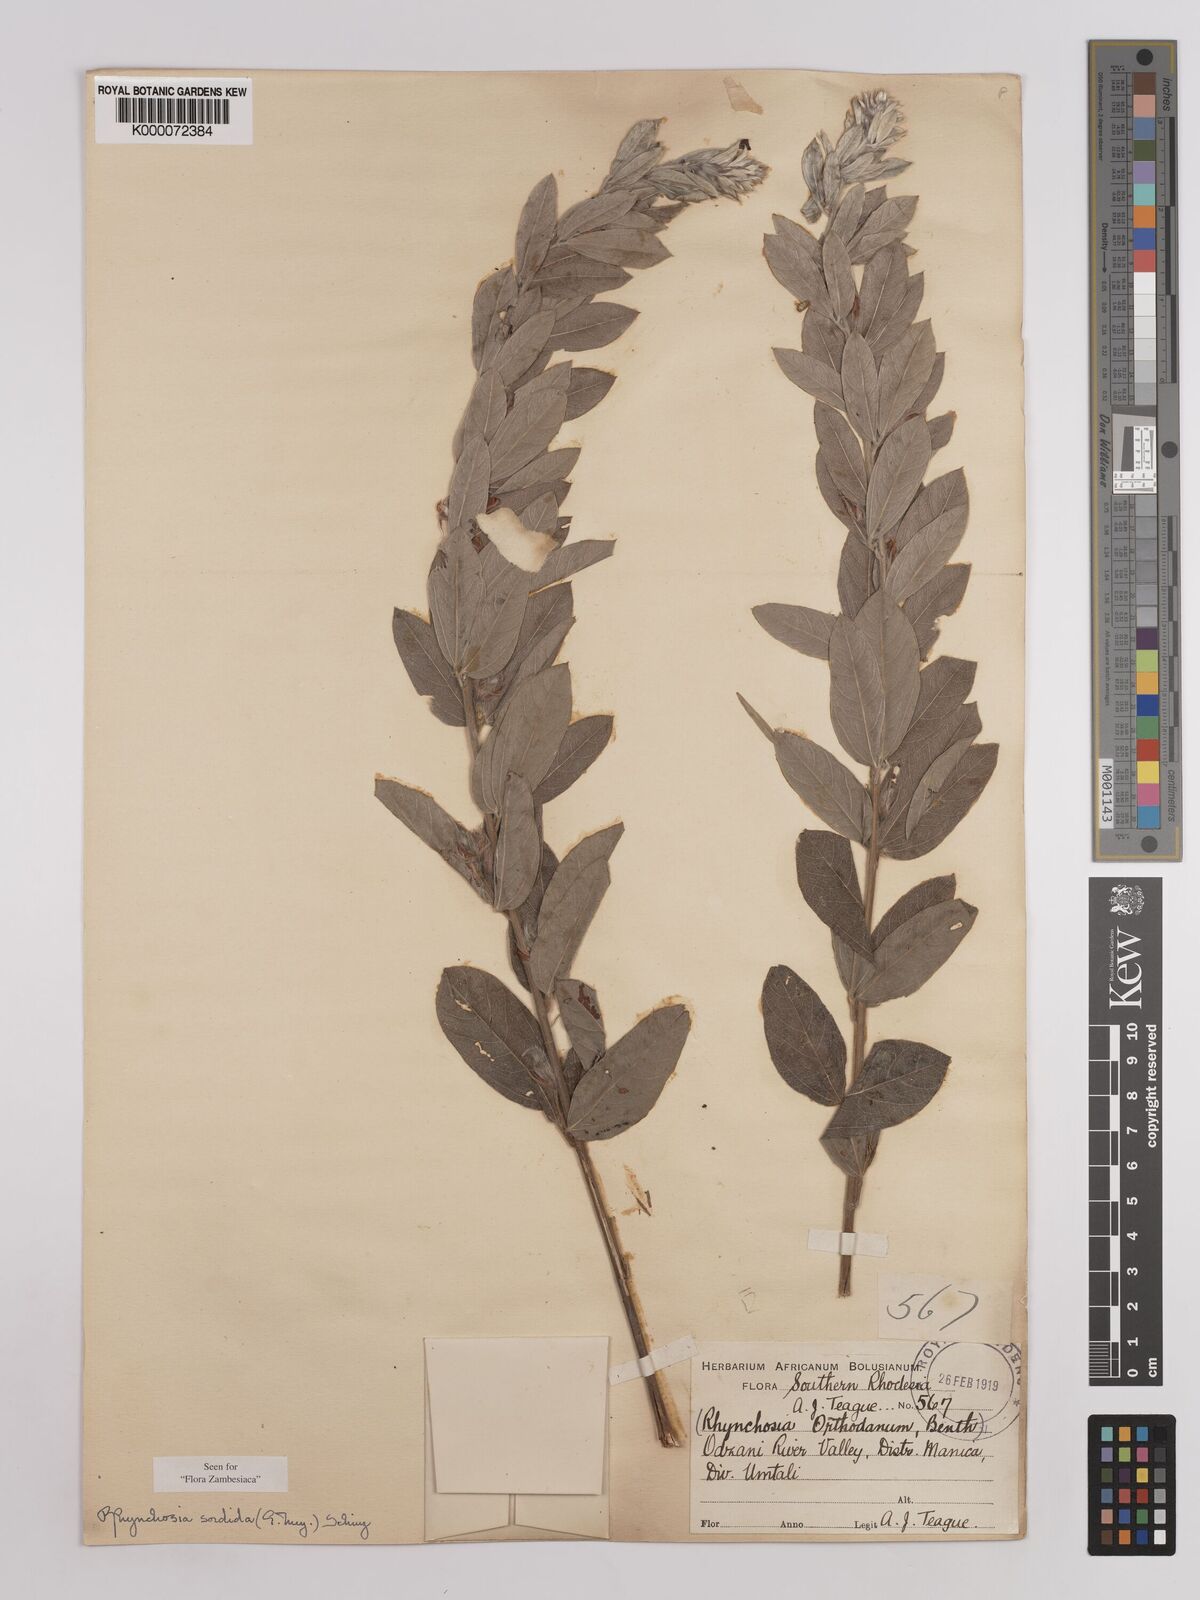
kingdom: Plantae
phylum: Tracheophyta
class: Magnoliopsida
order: Fabales
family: Fabaceae
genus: Rhynchosia
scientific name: Rhynchosia sordida
